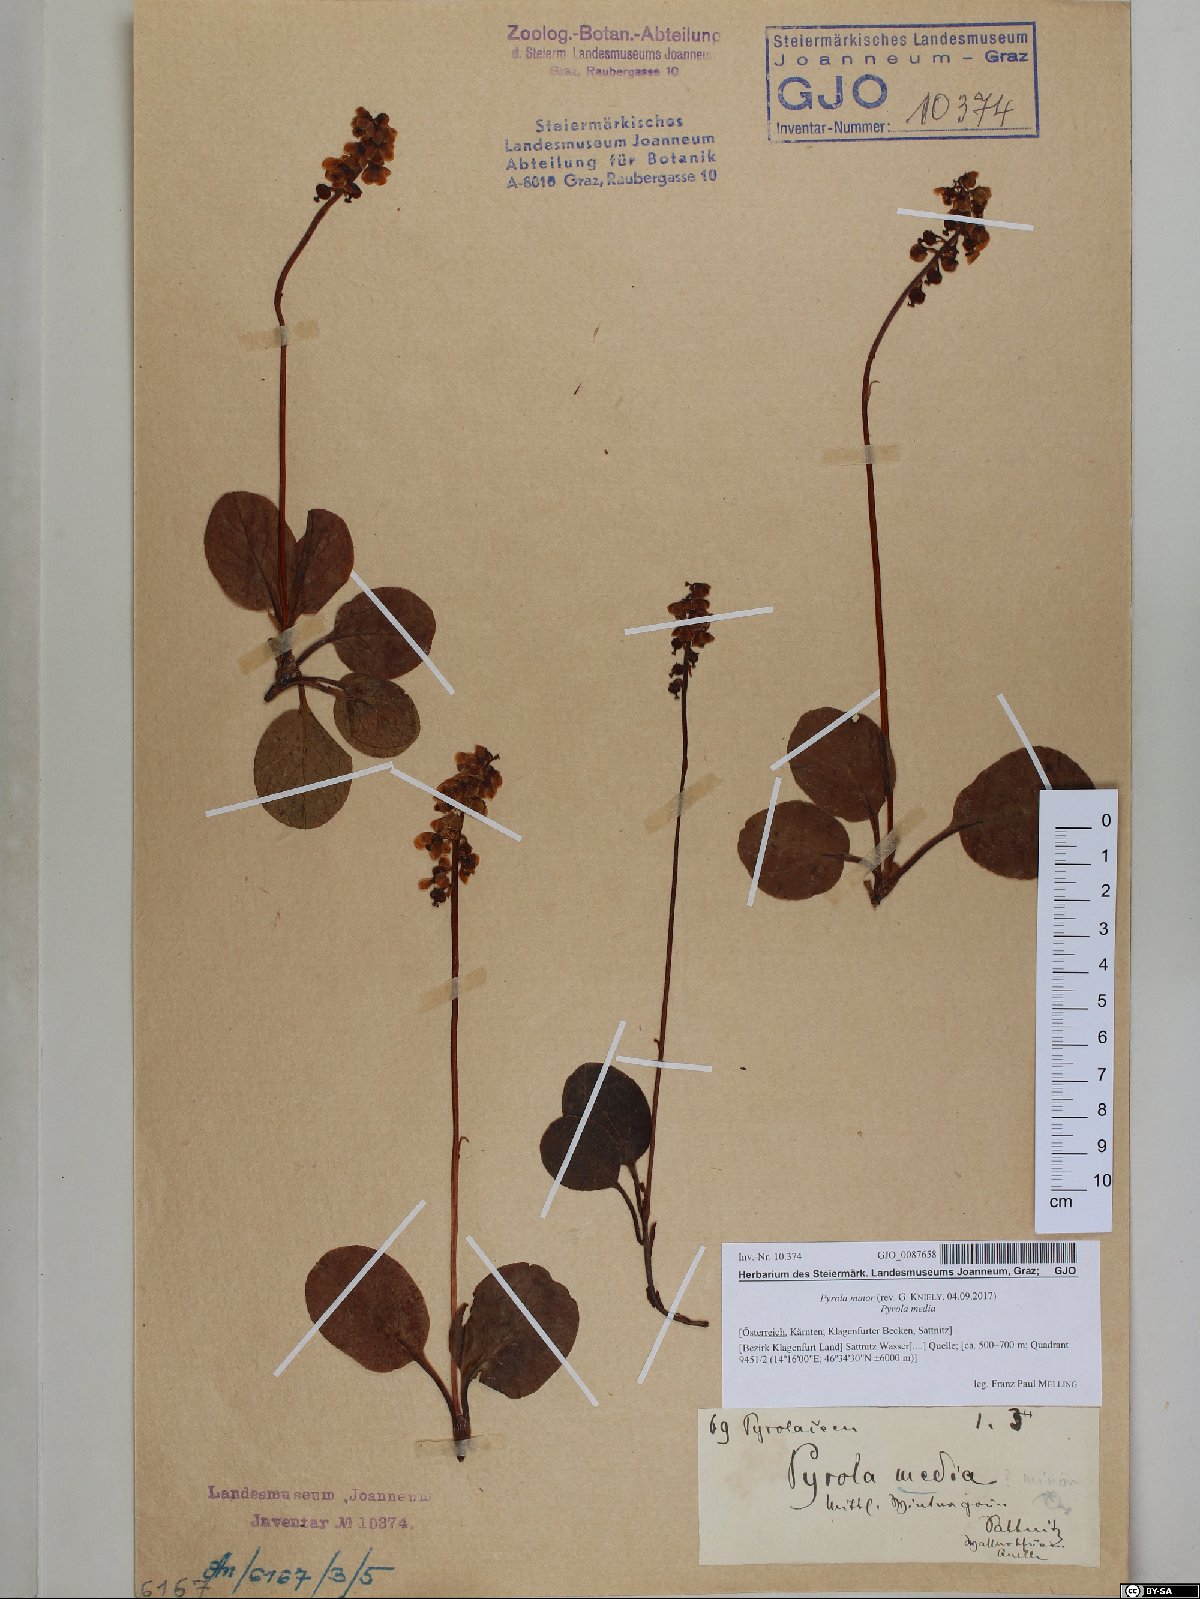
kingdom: Plantae
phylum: Tracheophyta
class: Magnoliopsida
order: Ericales
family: Ericaceae
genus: Pyrola
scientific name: Pyrola minor
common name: Common wintergreen
